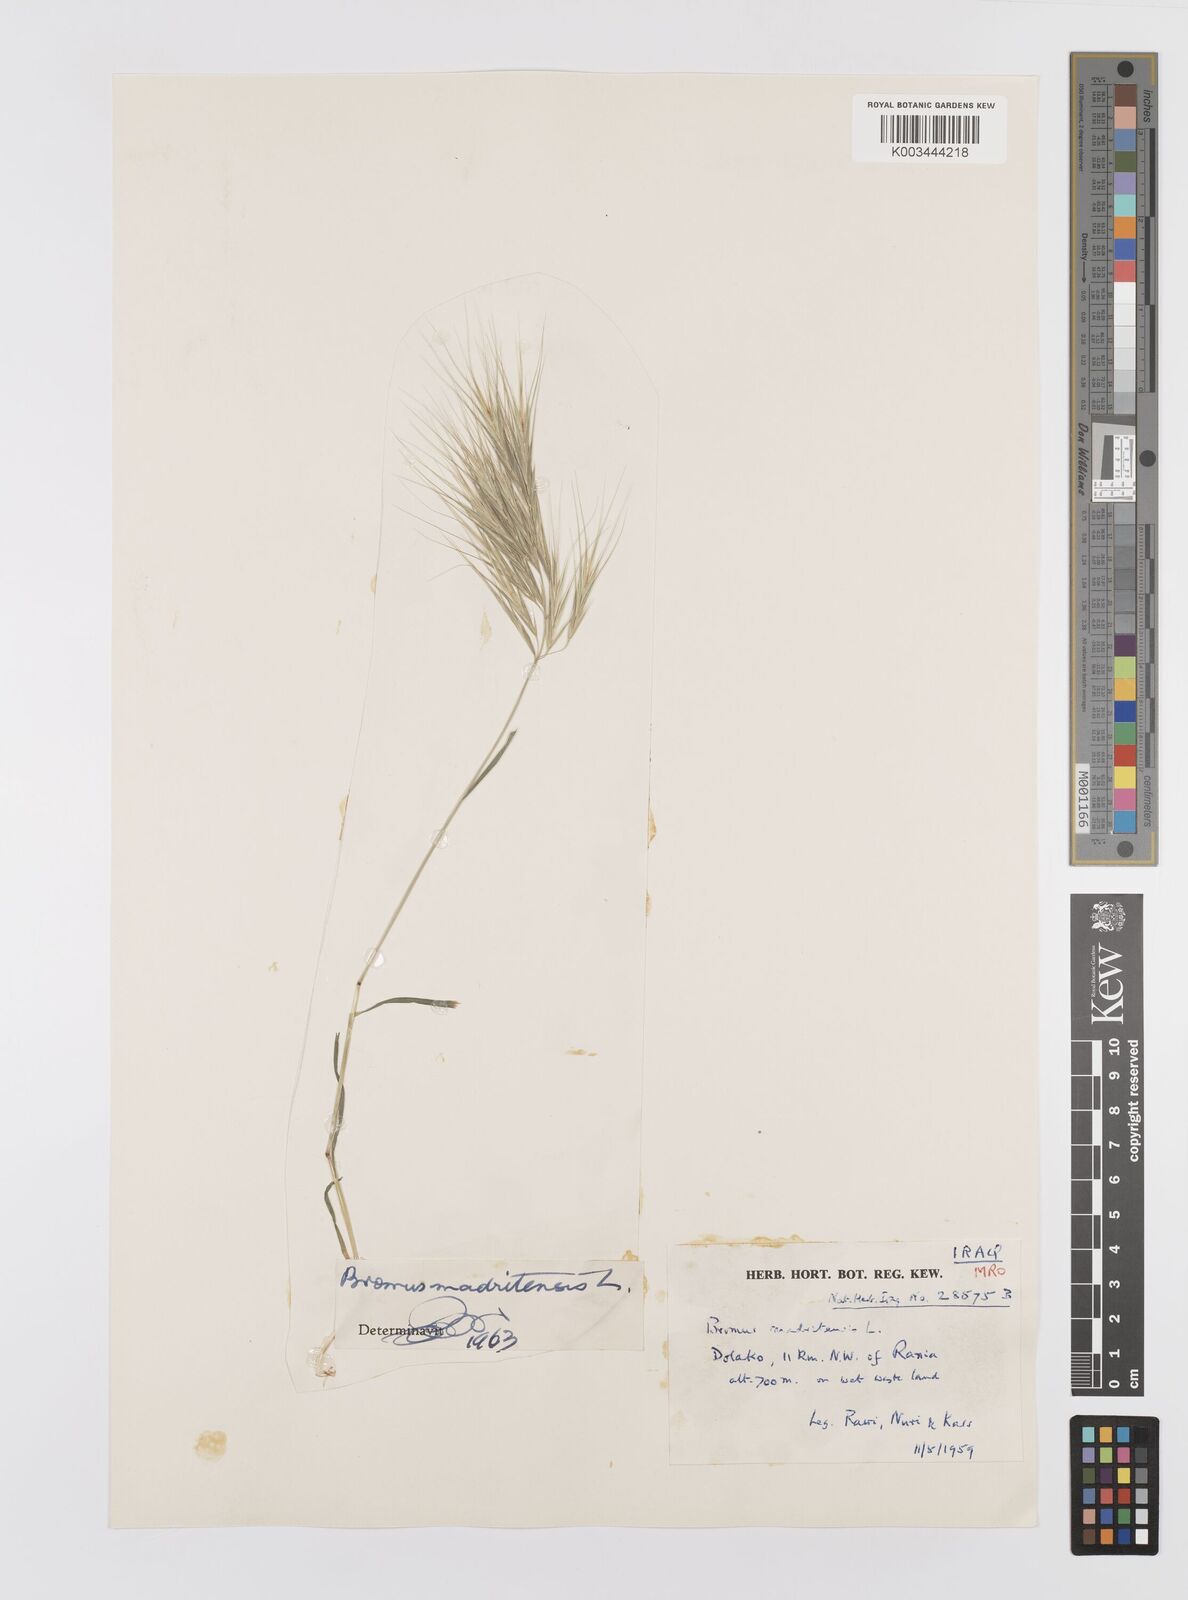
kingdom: Plantae
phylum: Tracheophyta
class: Liliopsida
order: Poales
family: Poaceae
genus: Bromus
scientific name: Bromus madritensis
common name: Compact brome
